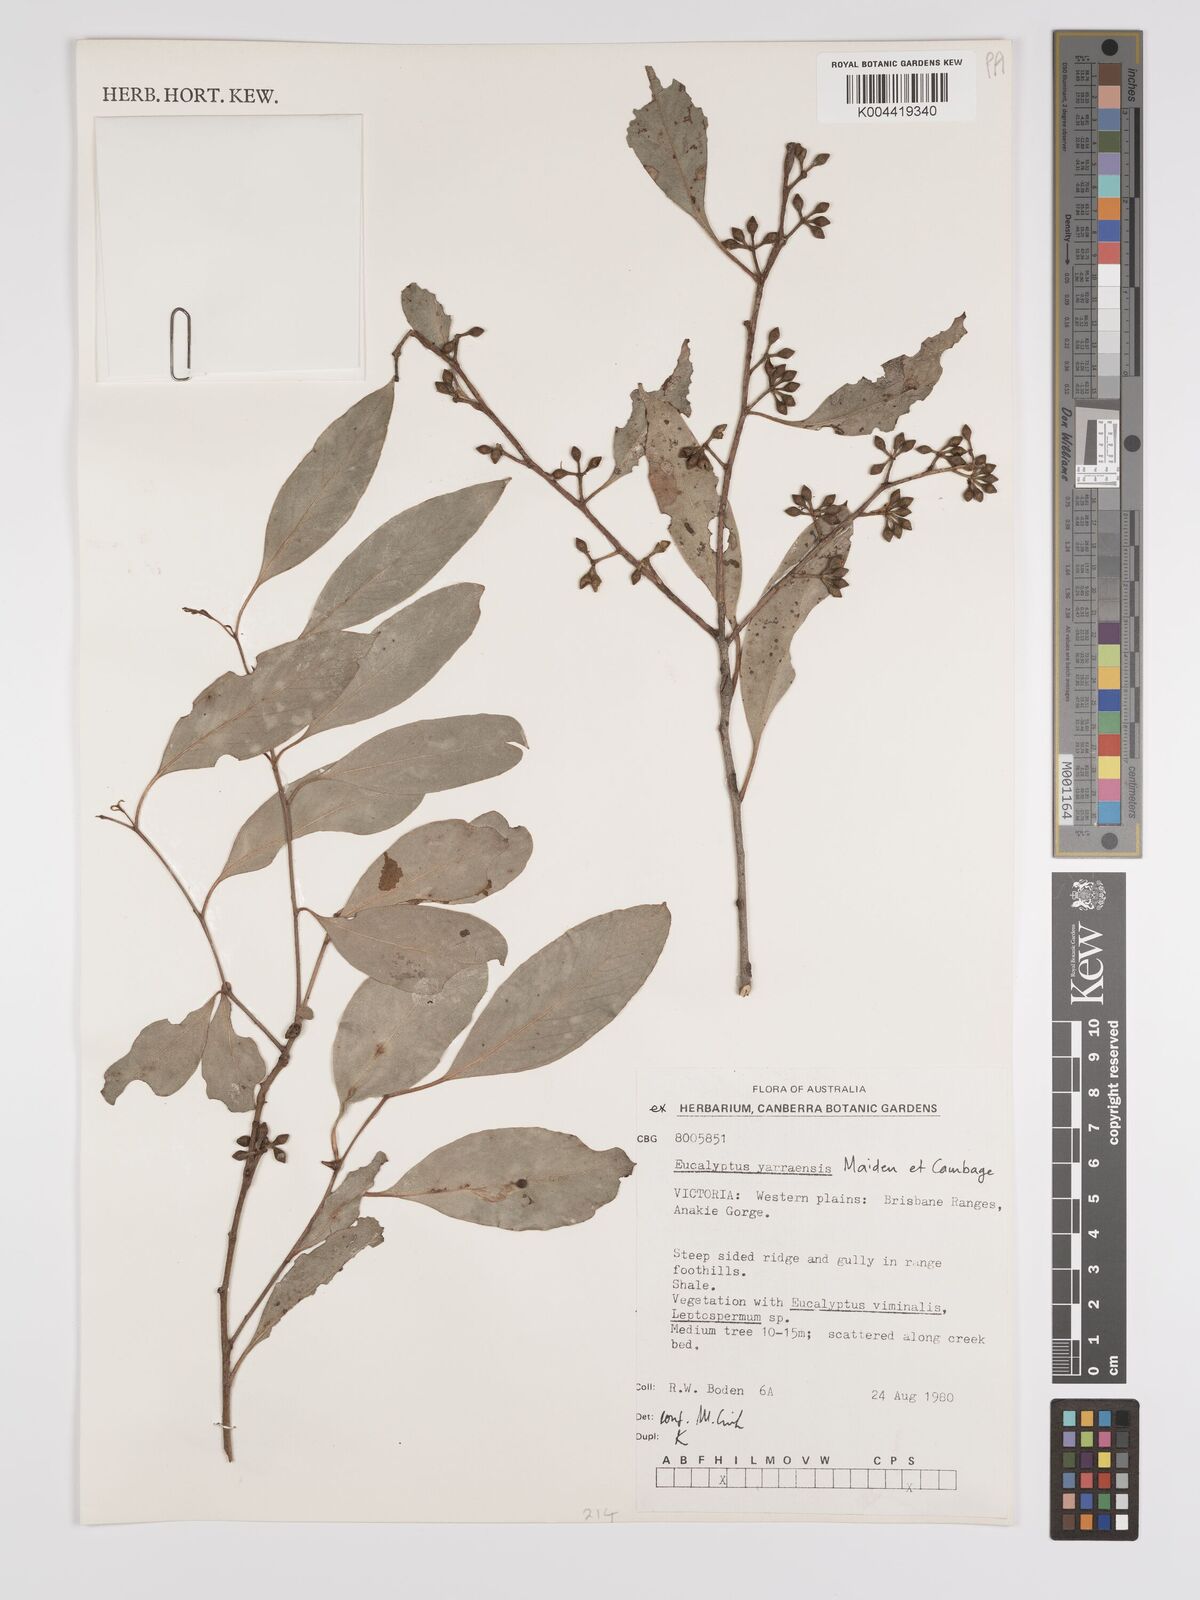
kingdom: Plantae
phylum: Tracheophyta
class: Magnoliopsida
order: Myrtales
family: Myrtaceae
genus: Eucalyptus
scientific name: Eucalyptus yarraensis
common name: Yarra gum
